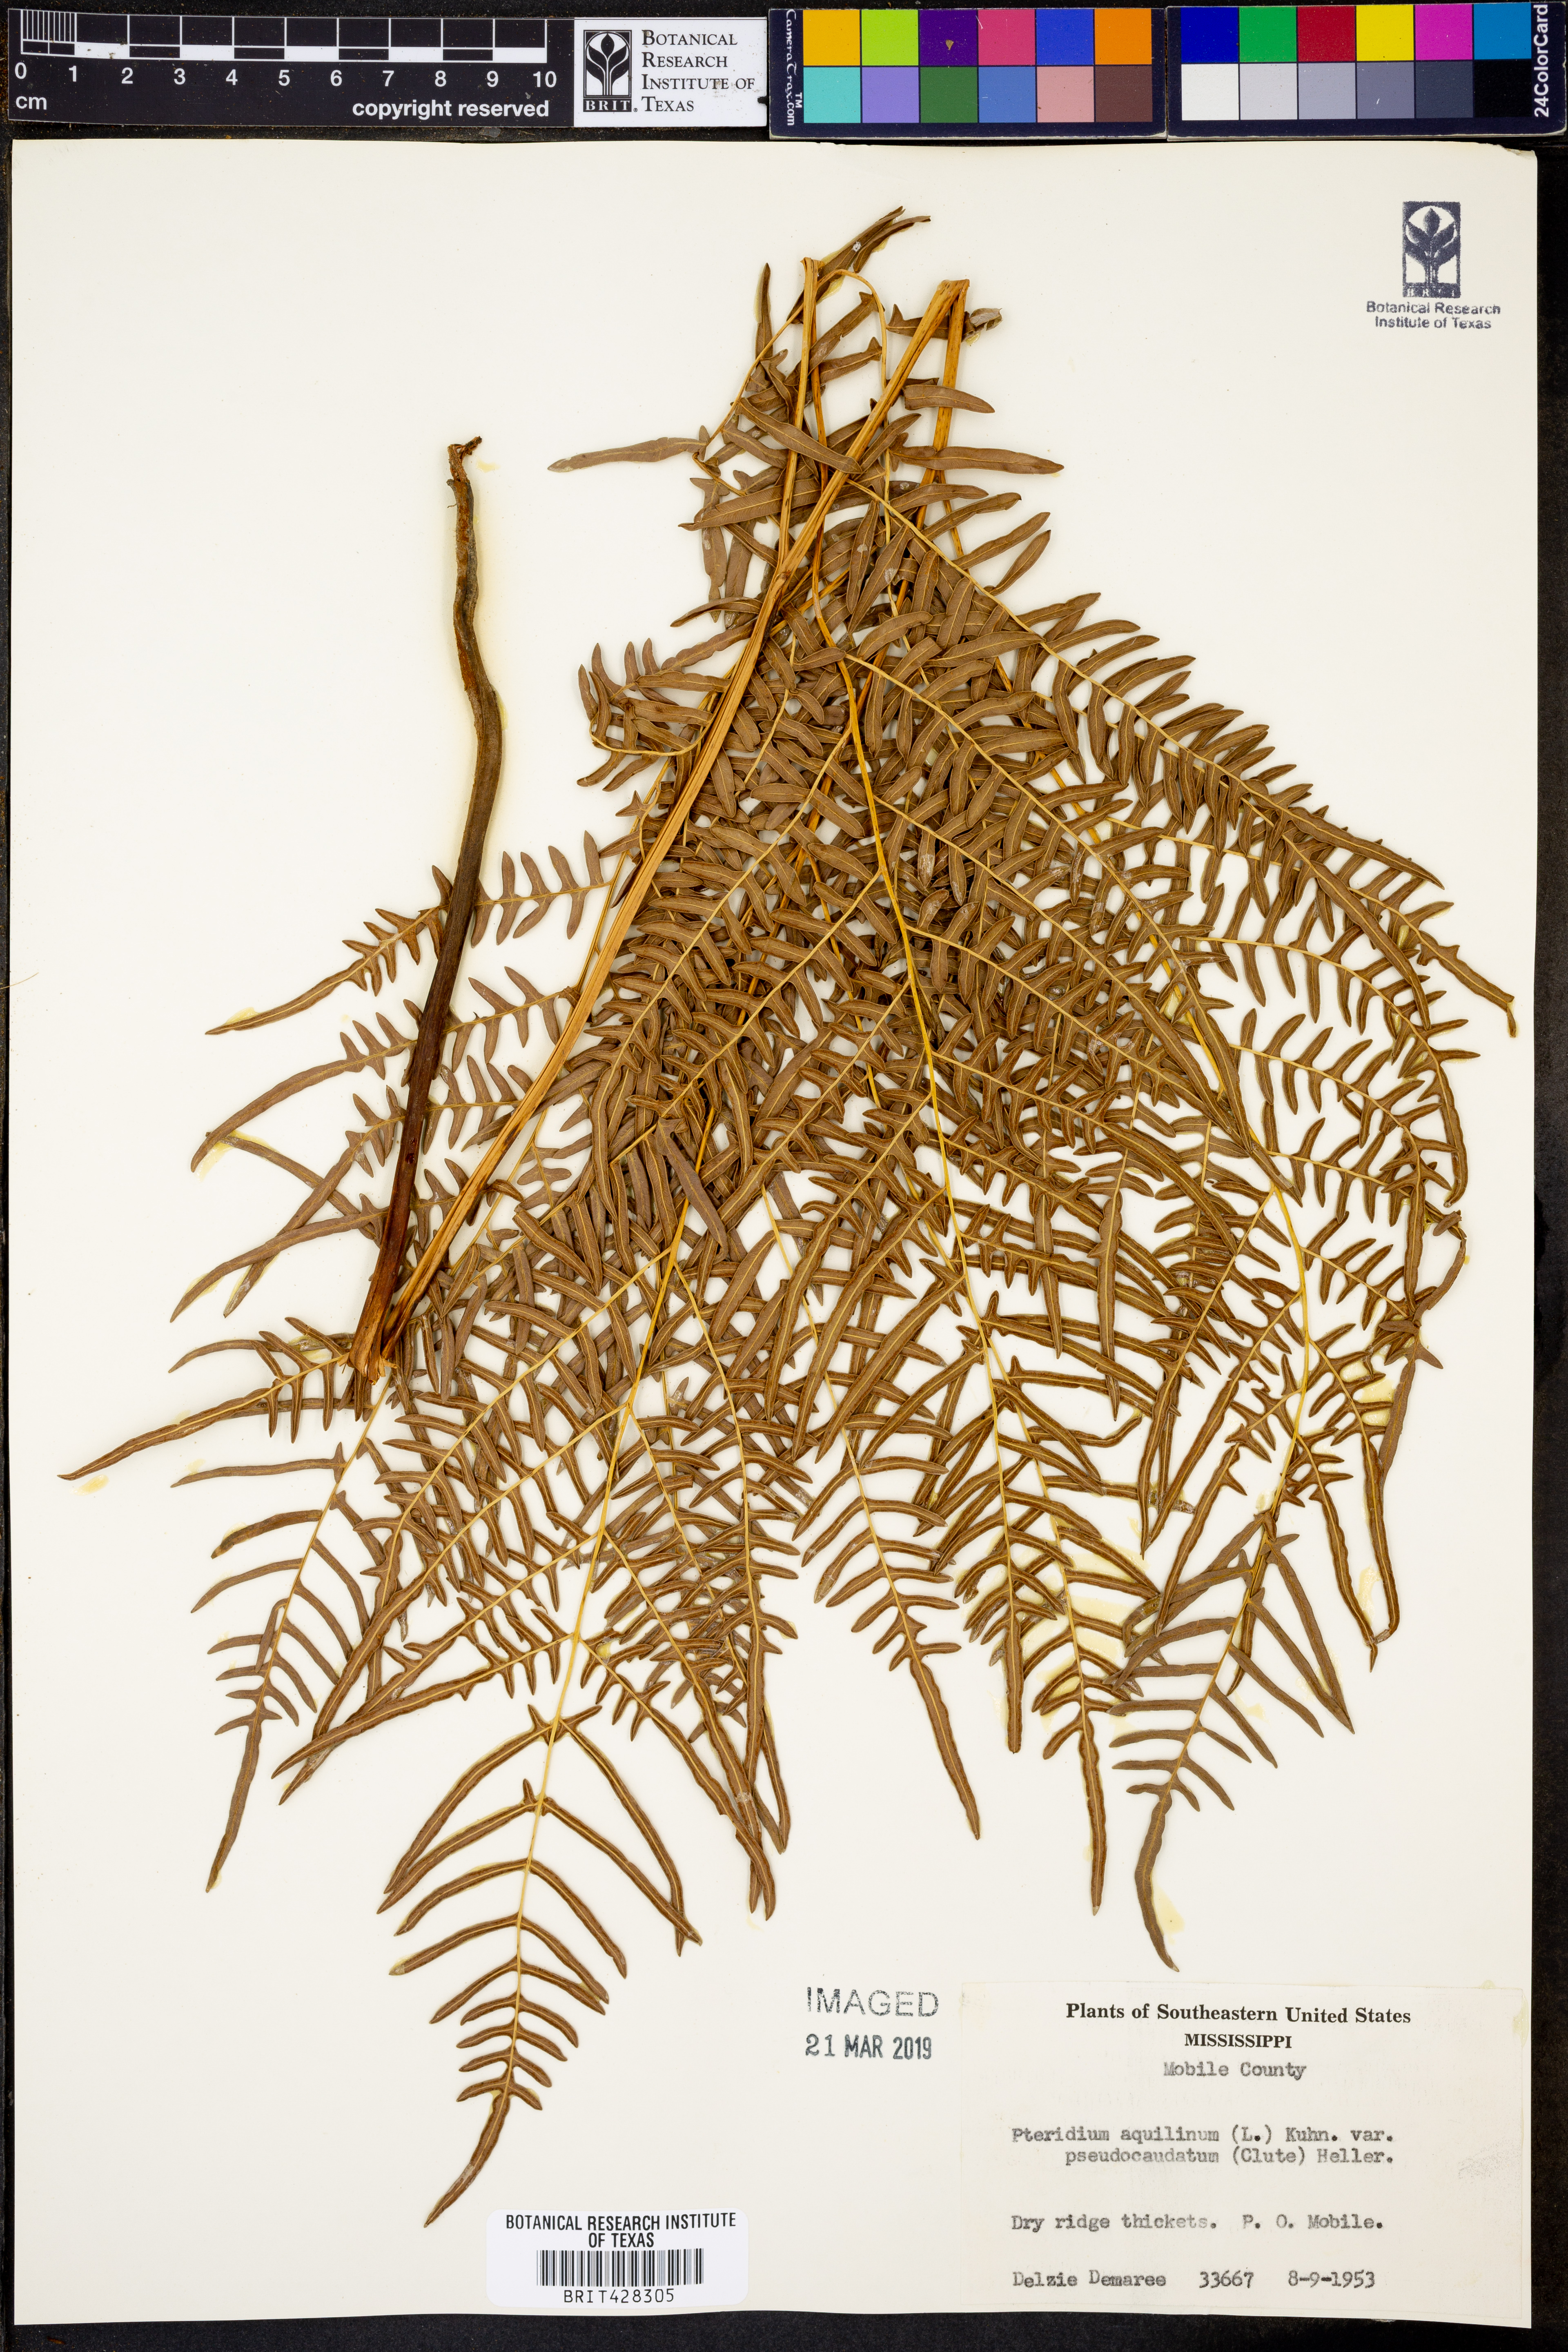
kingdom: Plantae
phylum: Tracheophyta
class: Polypodiopsida
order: Polypodiales
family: Dennstaedtiaceae
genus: Pteridium
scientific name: Pteridium aquilinum
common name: Bracken
